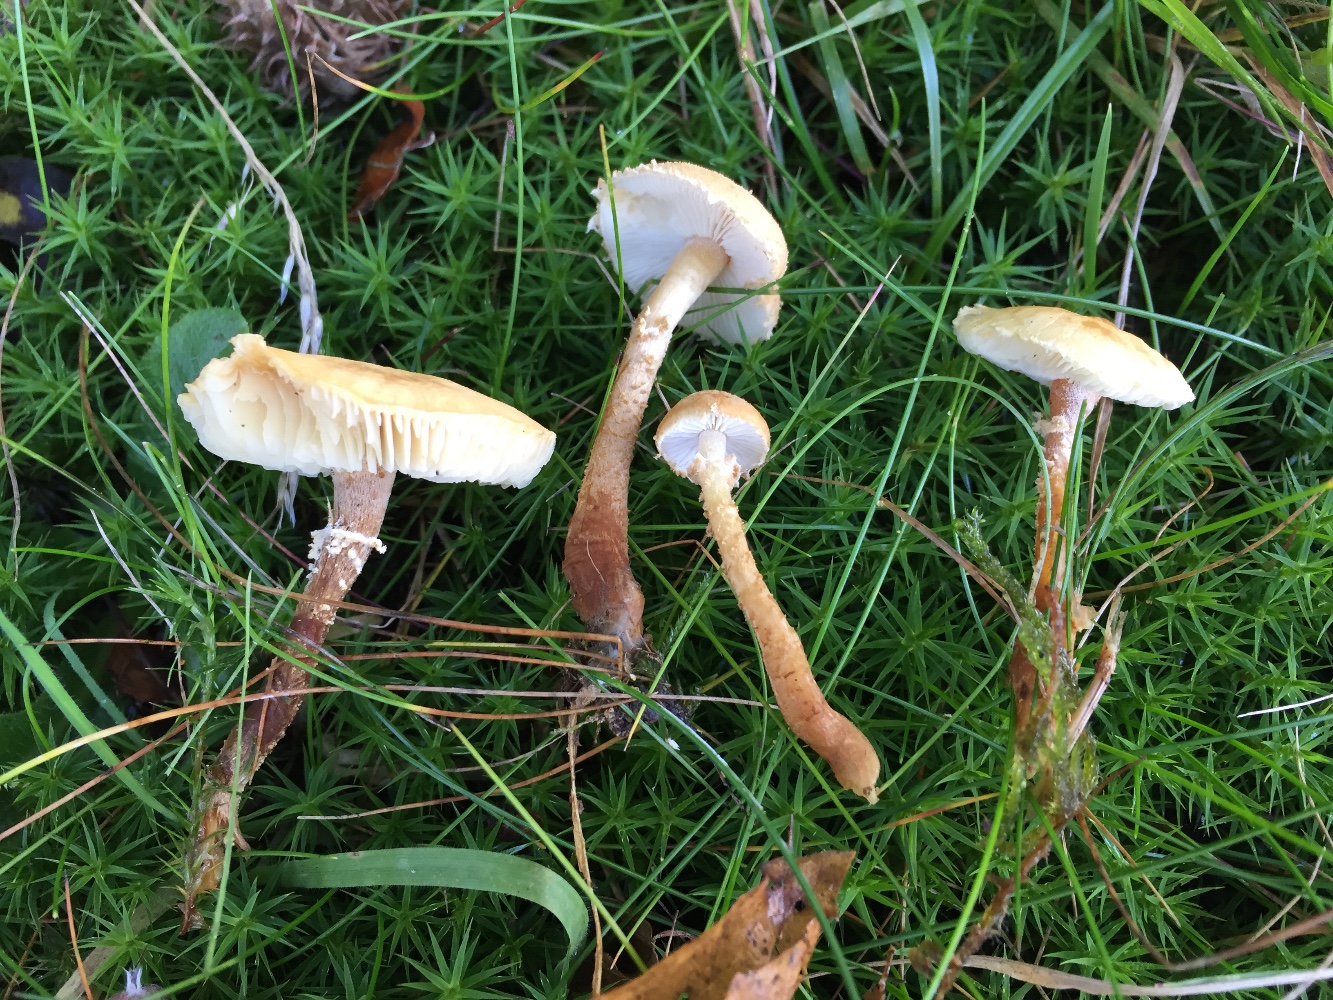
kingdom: Fungi
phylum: Basidiomycota
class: Agaricomycetes
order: Agaricales
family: Tricholomataceae
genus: Cystoderma
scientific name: Cystoderma amianthinum
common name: okkergul grynhat
